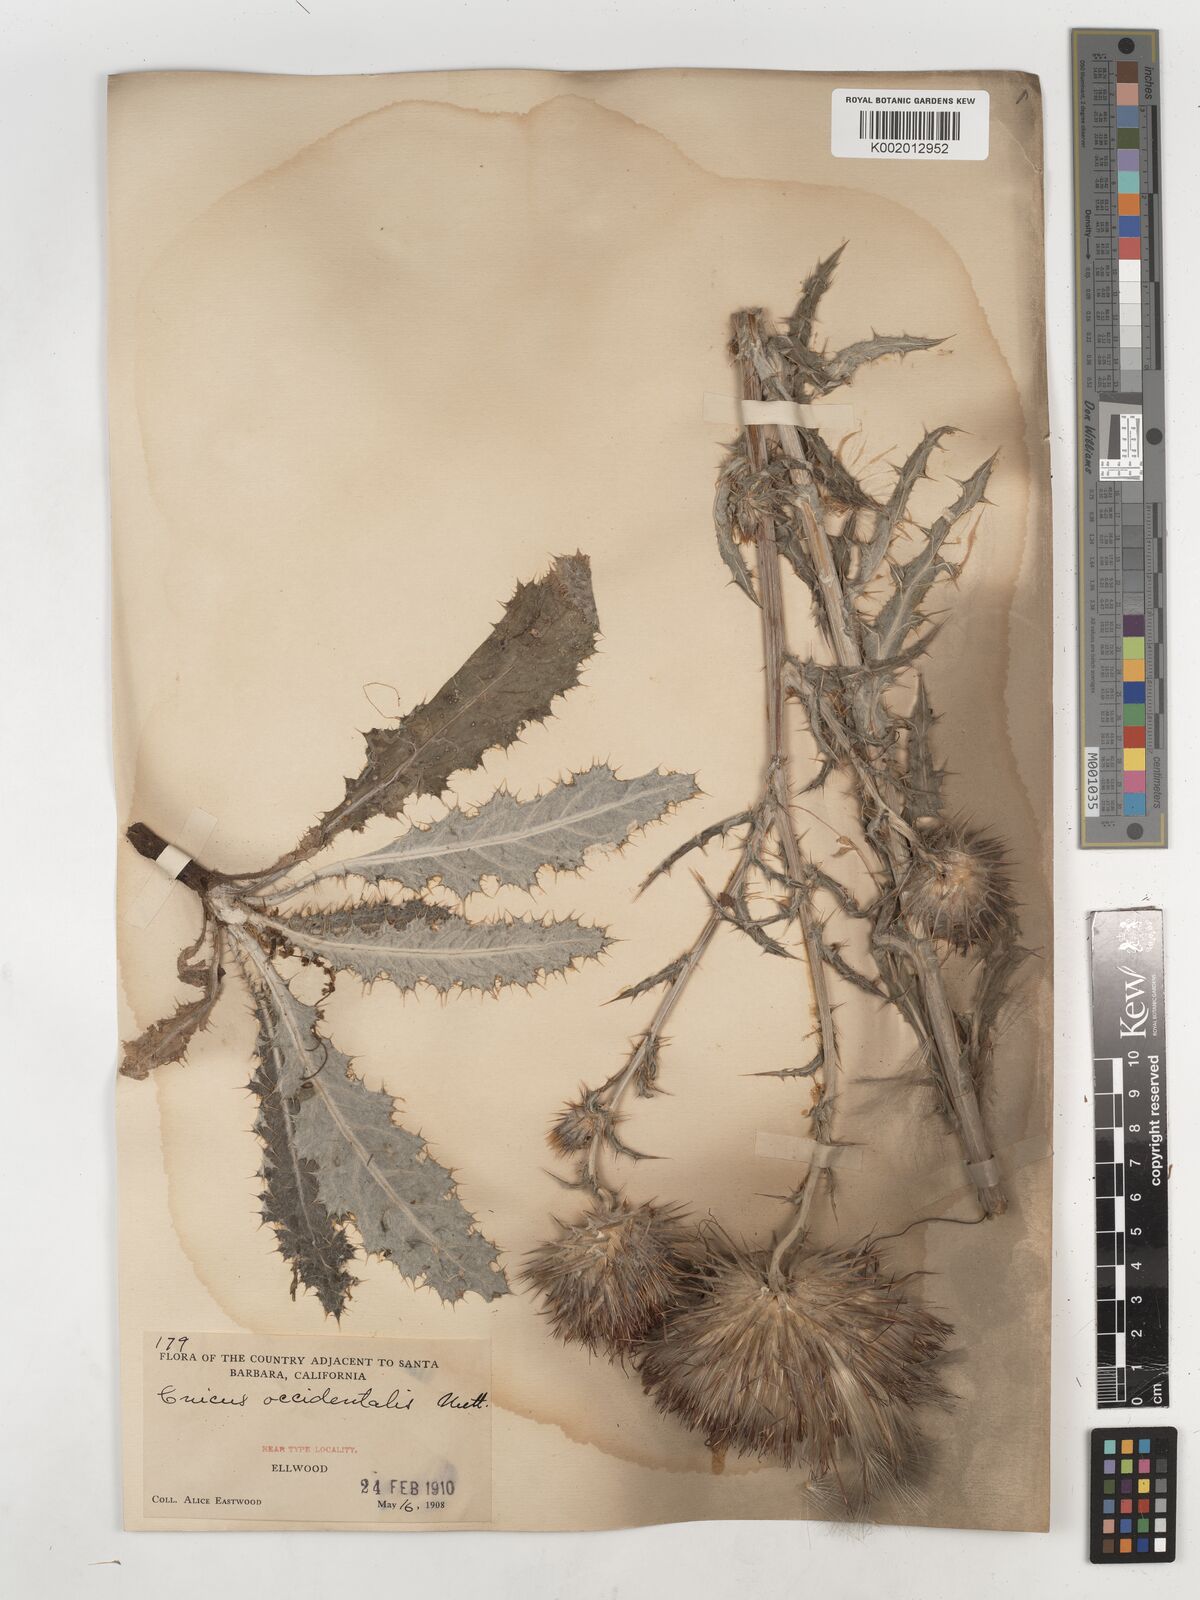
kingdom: Plantae
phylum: Tracheophyta
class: Magnoliopsida
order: Asterales
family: Asteraceae
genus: Cirsium
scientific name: Cirsium occidentale
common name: Western thistle
